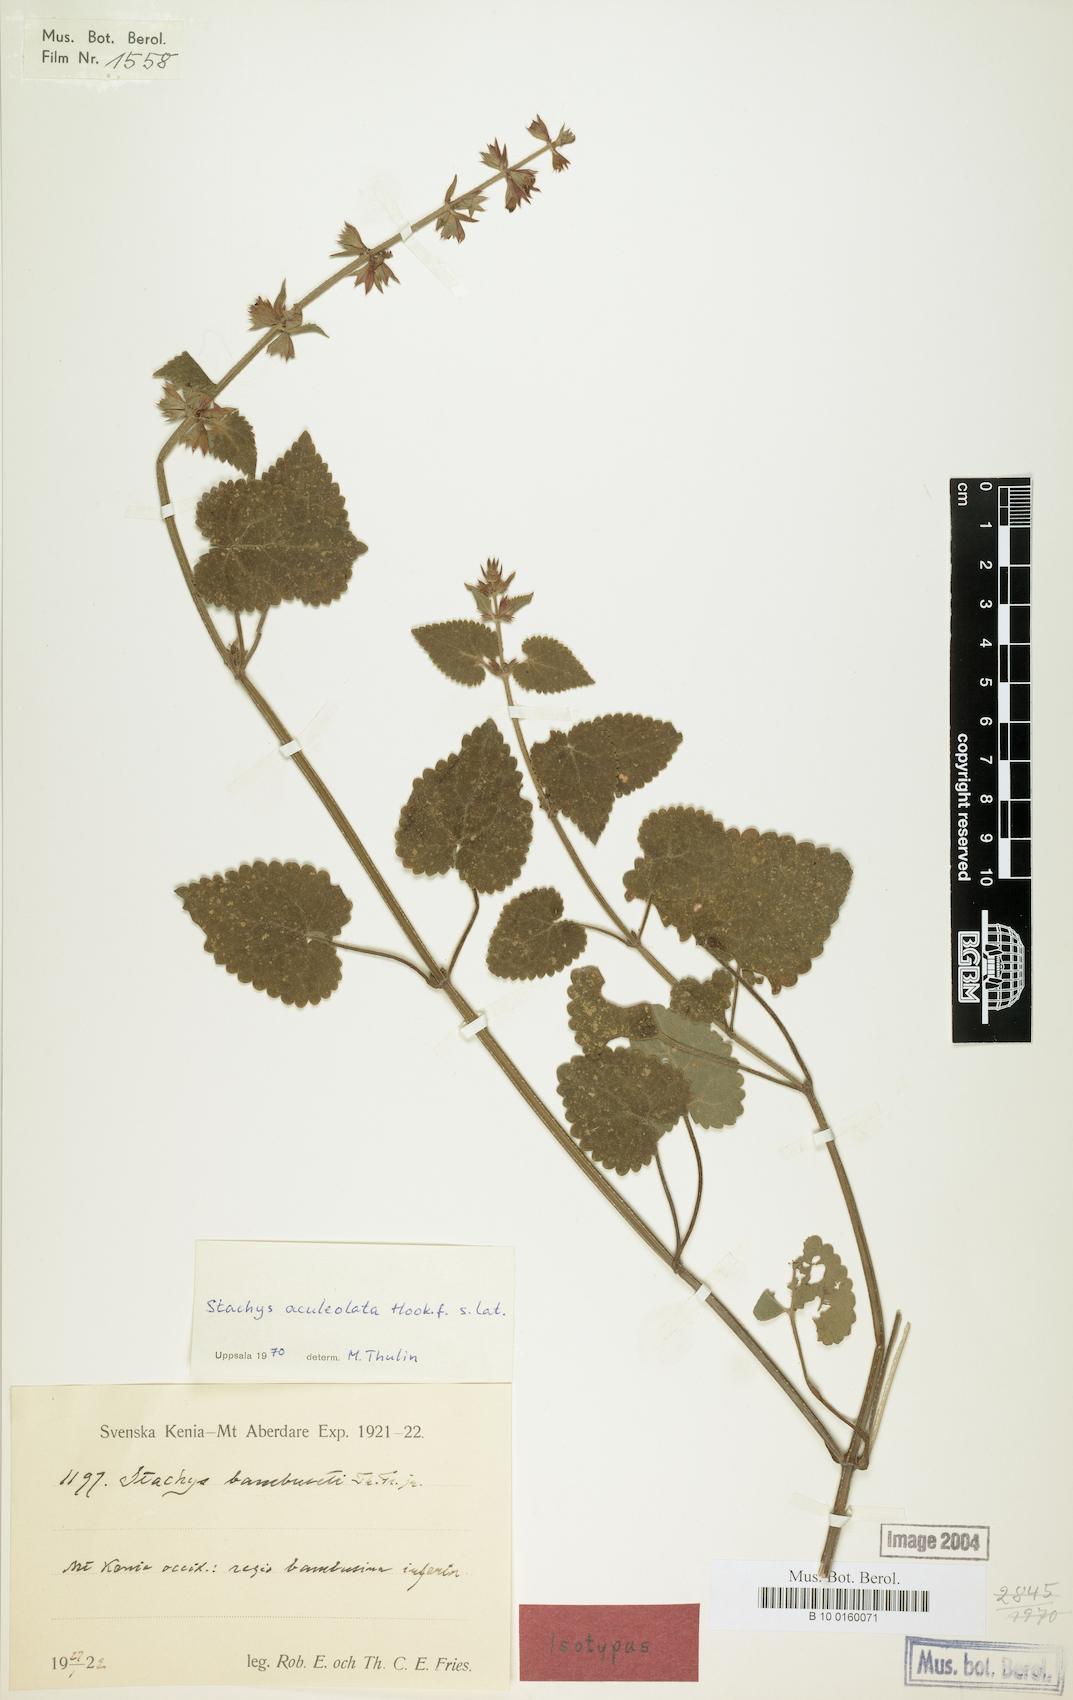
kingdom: Plantae
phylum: Tracheophyta
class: Magnoliopsida
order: Lamiales
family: Lamiaceae
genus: Stachys
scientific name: Stachys aculeolata
